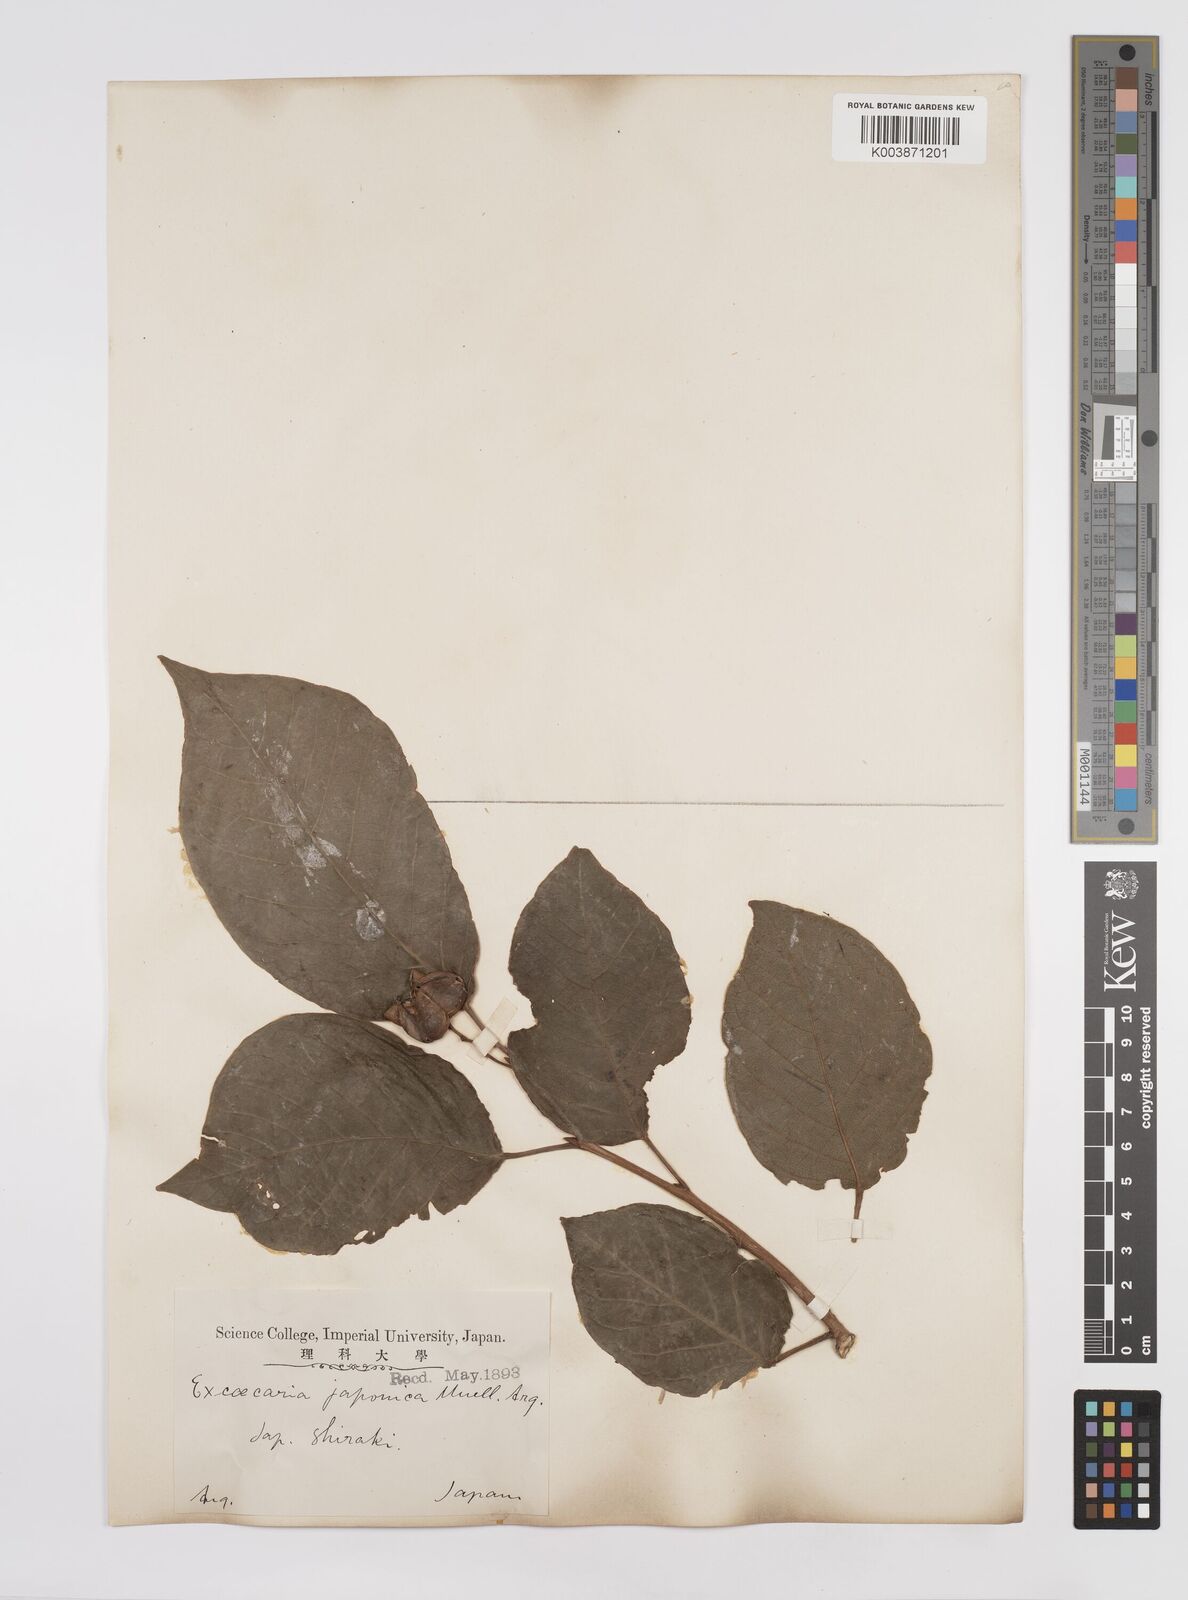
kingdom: Plantae
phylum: Tracheophyta
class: Magnoliopsida
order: Malpighiales
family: Euphorbiaceae
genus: Neoshirakia
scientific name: Neoshirakia japonica
